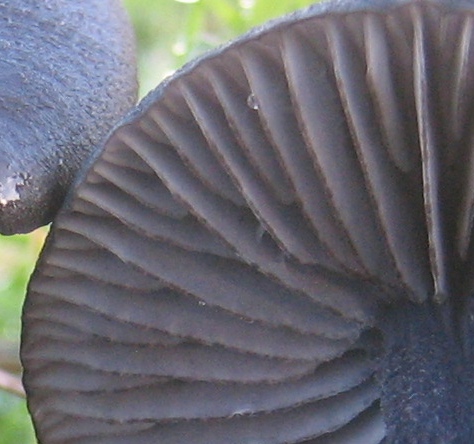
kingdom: Fungi
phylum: Basidiomycota
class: Agaricomycetes
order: Agaricales
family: Entolomataceae
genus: Entoloma
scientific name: Entoloma
